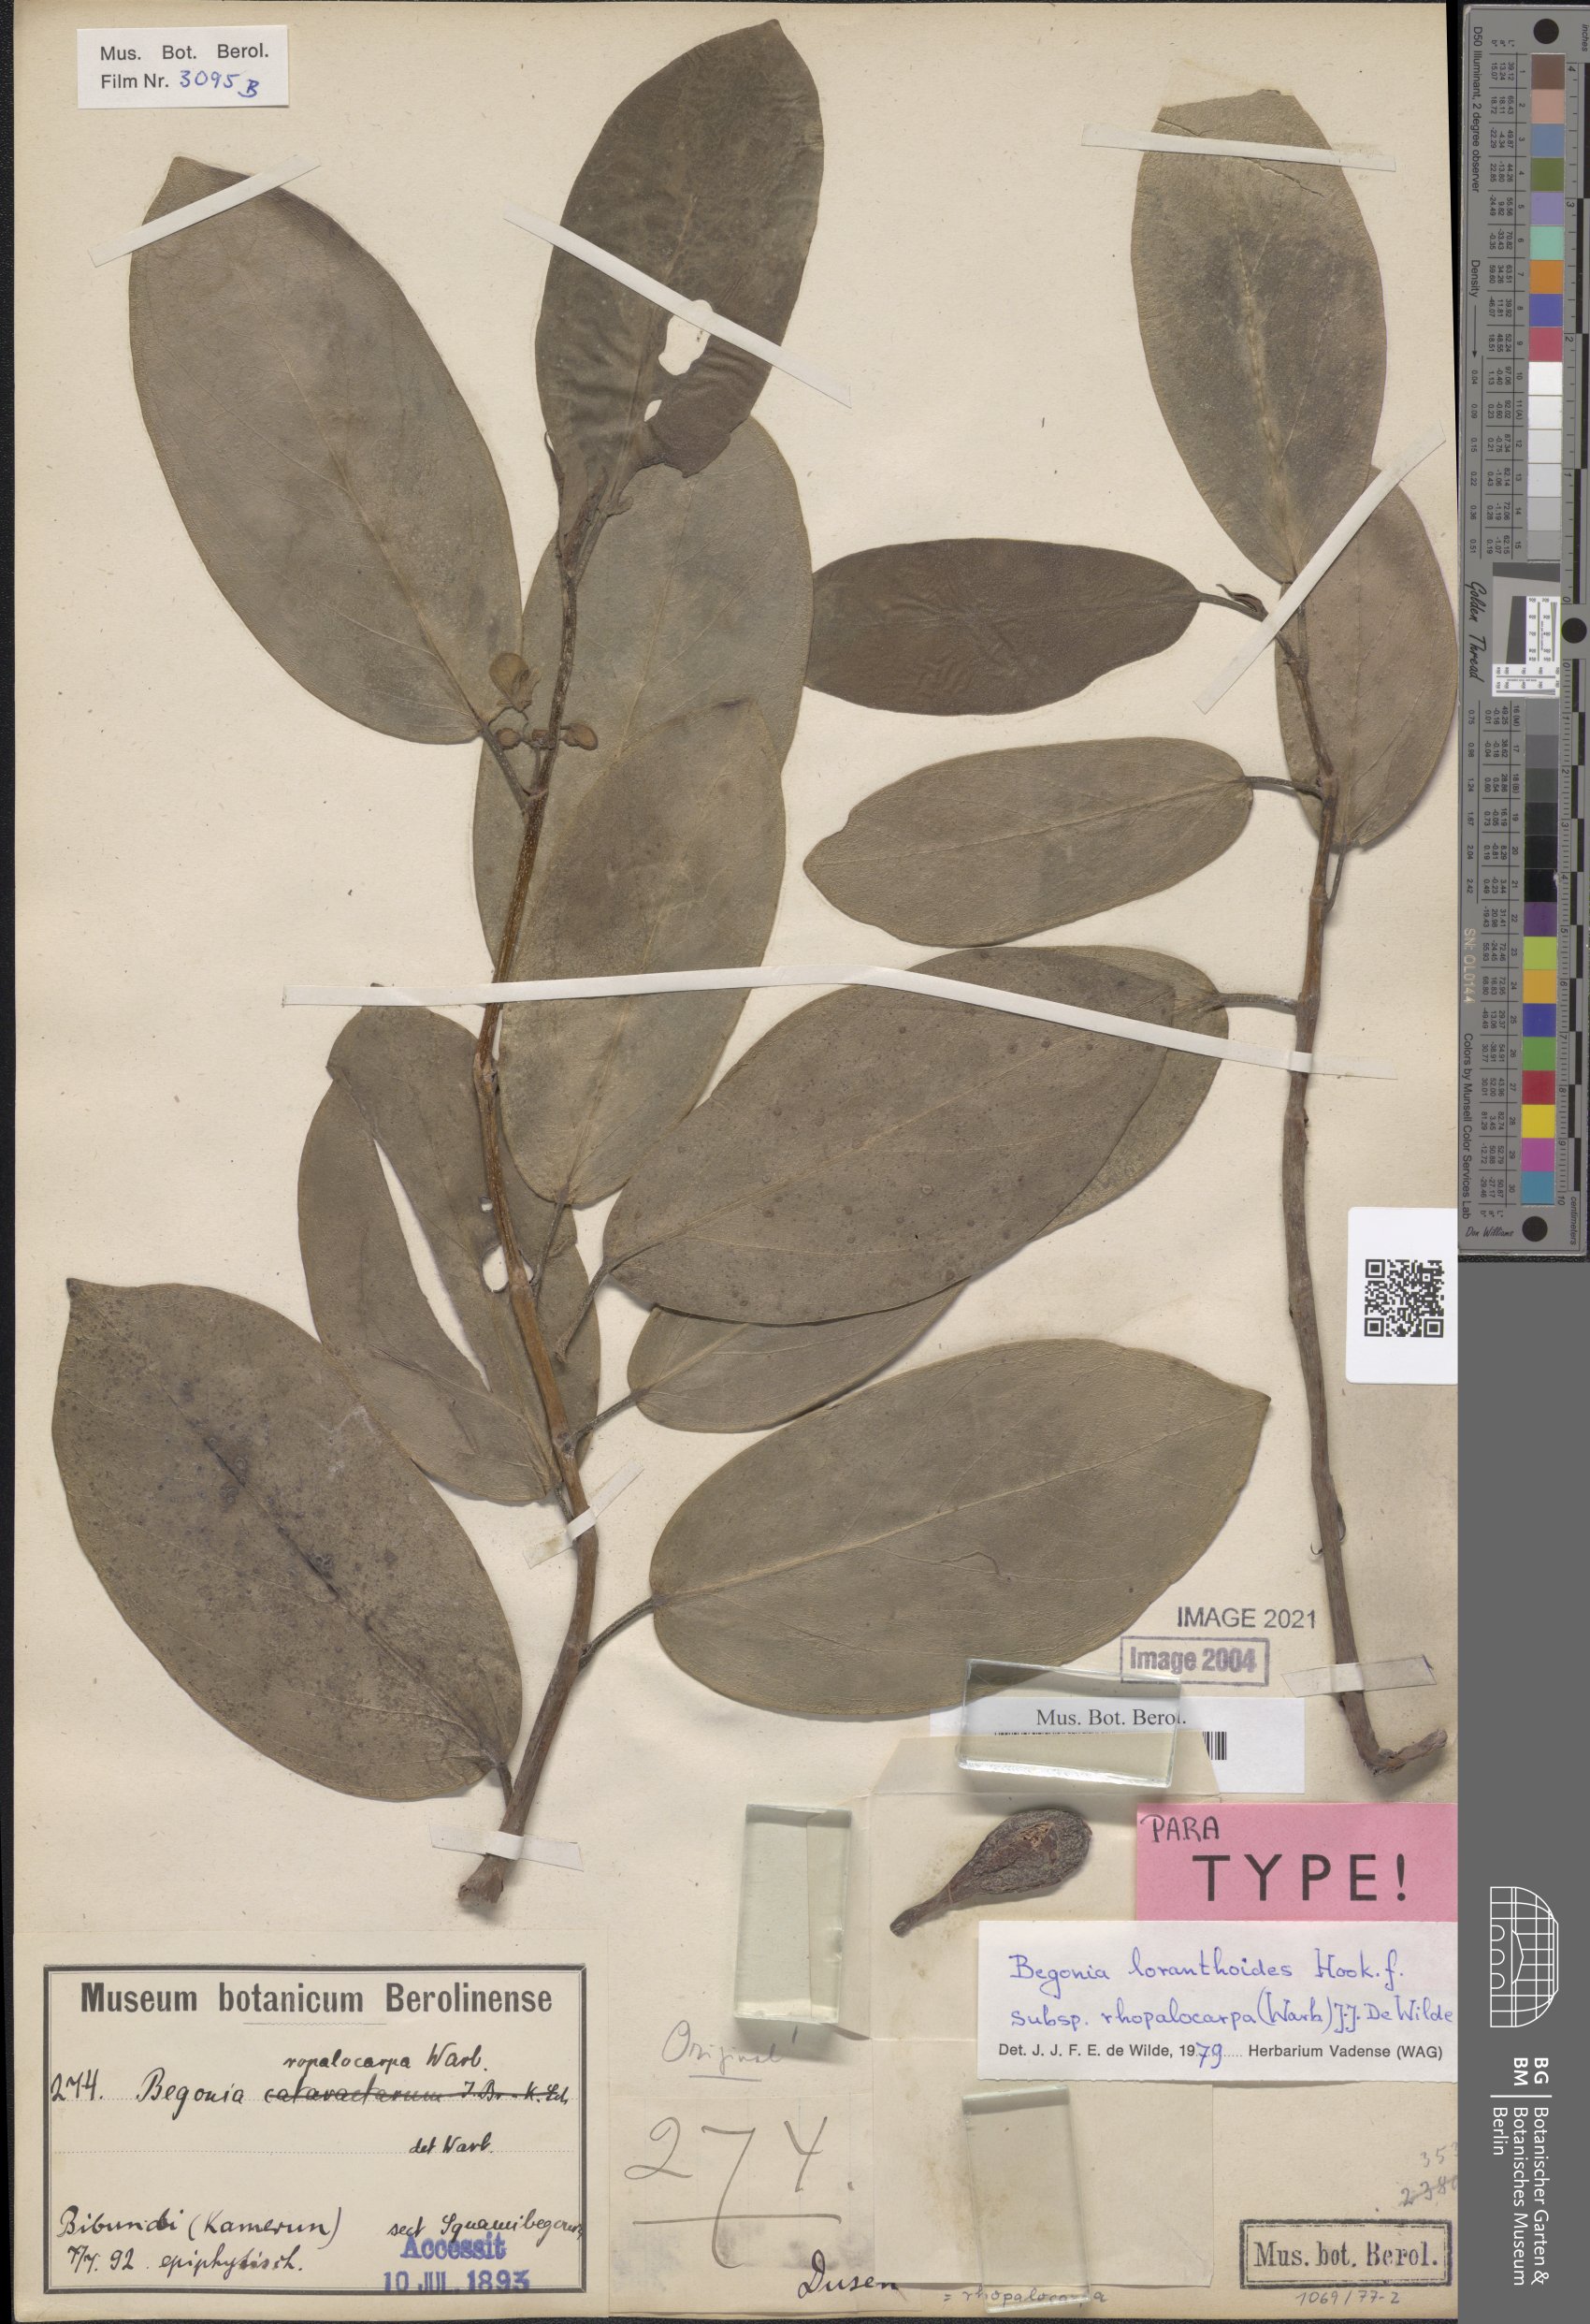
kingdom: Plantae
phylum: Tracheophyta
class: Magnoliopsida
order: Cucurbitales
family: Begoniaceae
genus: Begonia
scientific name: Begonia loranthoides
